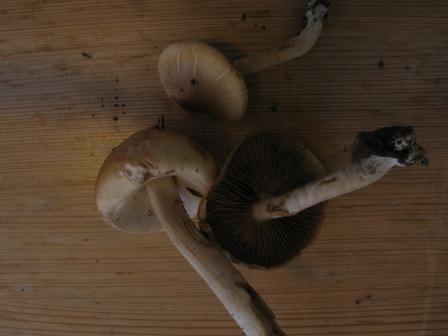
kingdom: Fungi
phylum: Basidiomycota
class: Agaricomycetes
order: Agaricales
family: Strophariaceae
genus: Agrocybe
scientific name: Agrocybe praecox
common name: tidlig agerhat
